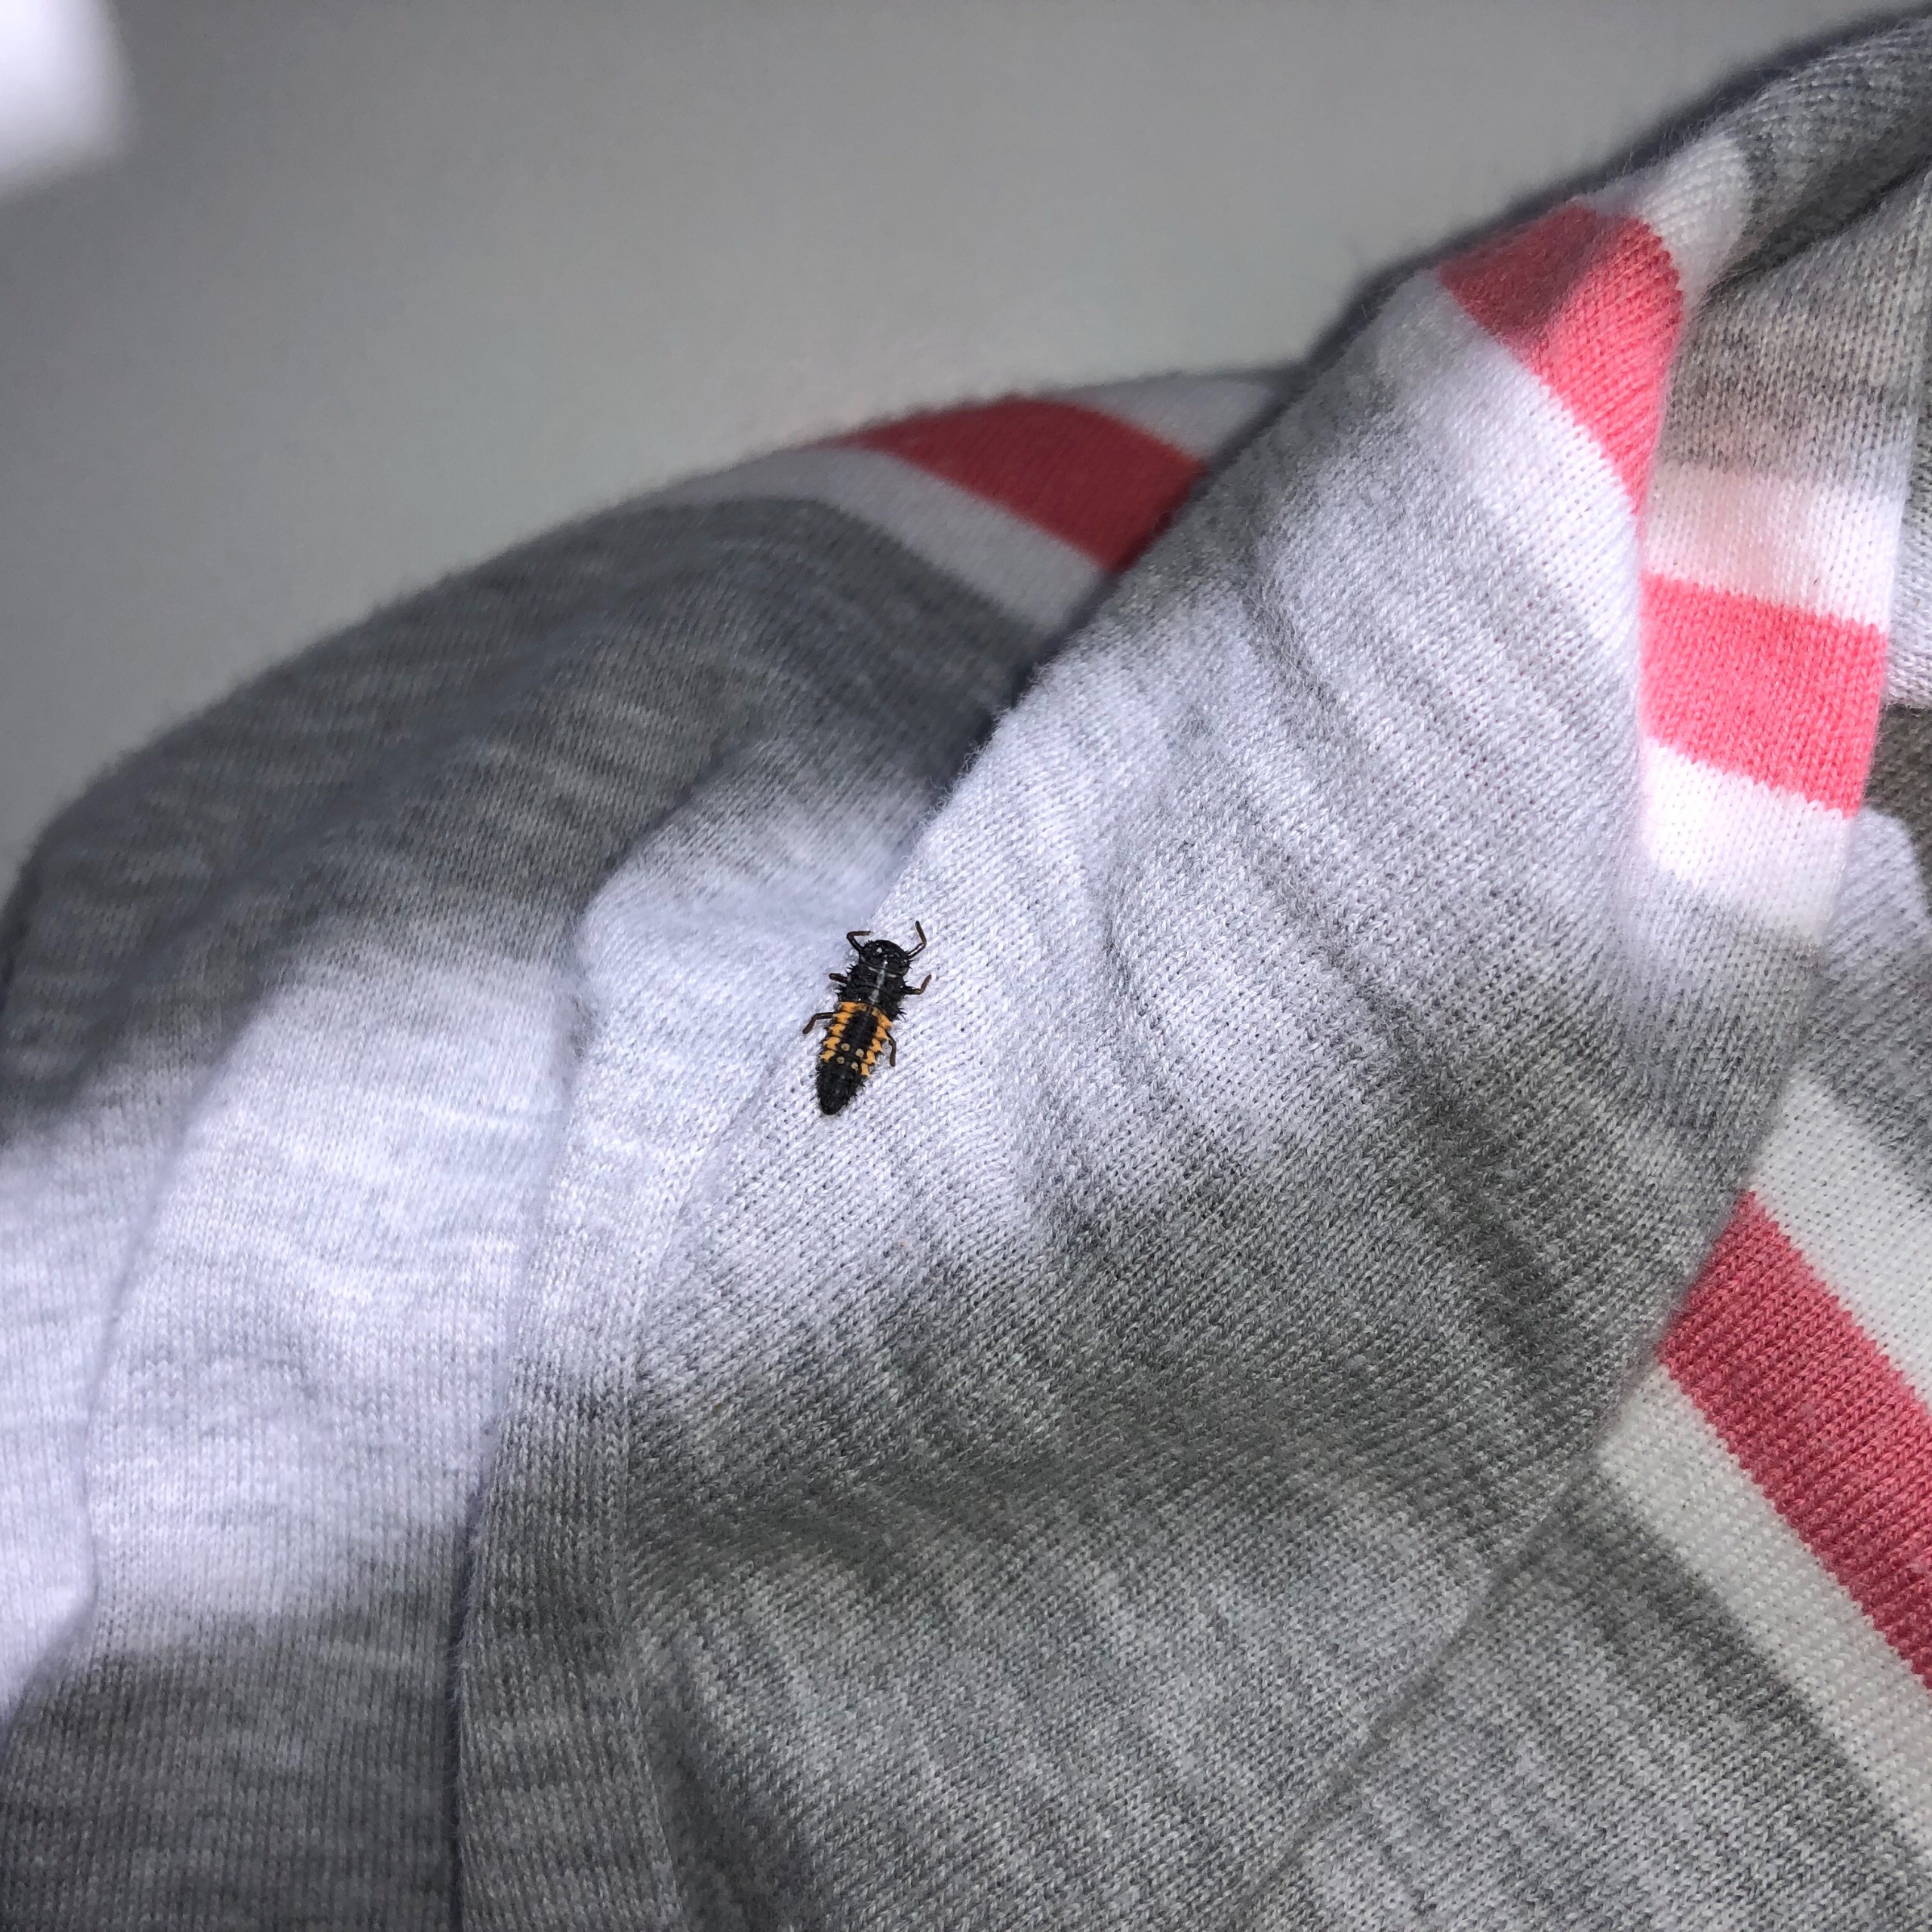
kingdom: Animalia
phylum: Arthropoda
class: Insecta
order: Coleoptera
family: Coccinellidae
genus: Harmonia
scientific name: Harmonia axyridis
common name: Harlekinmariehøne
